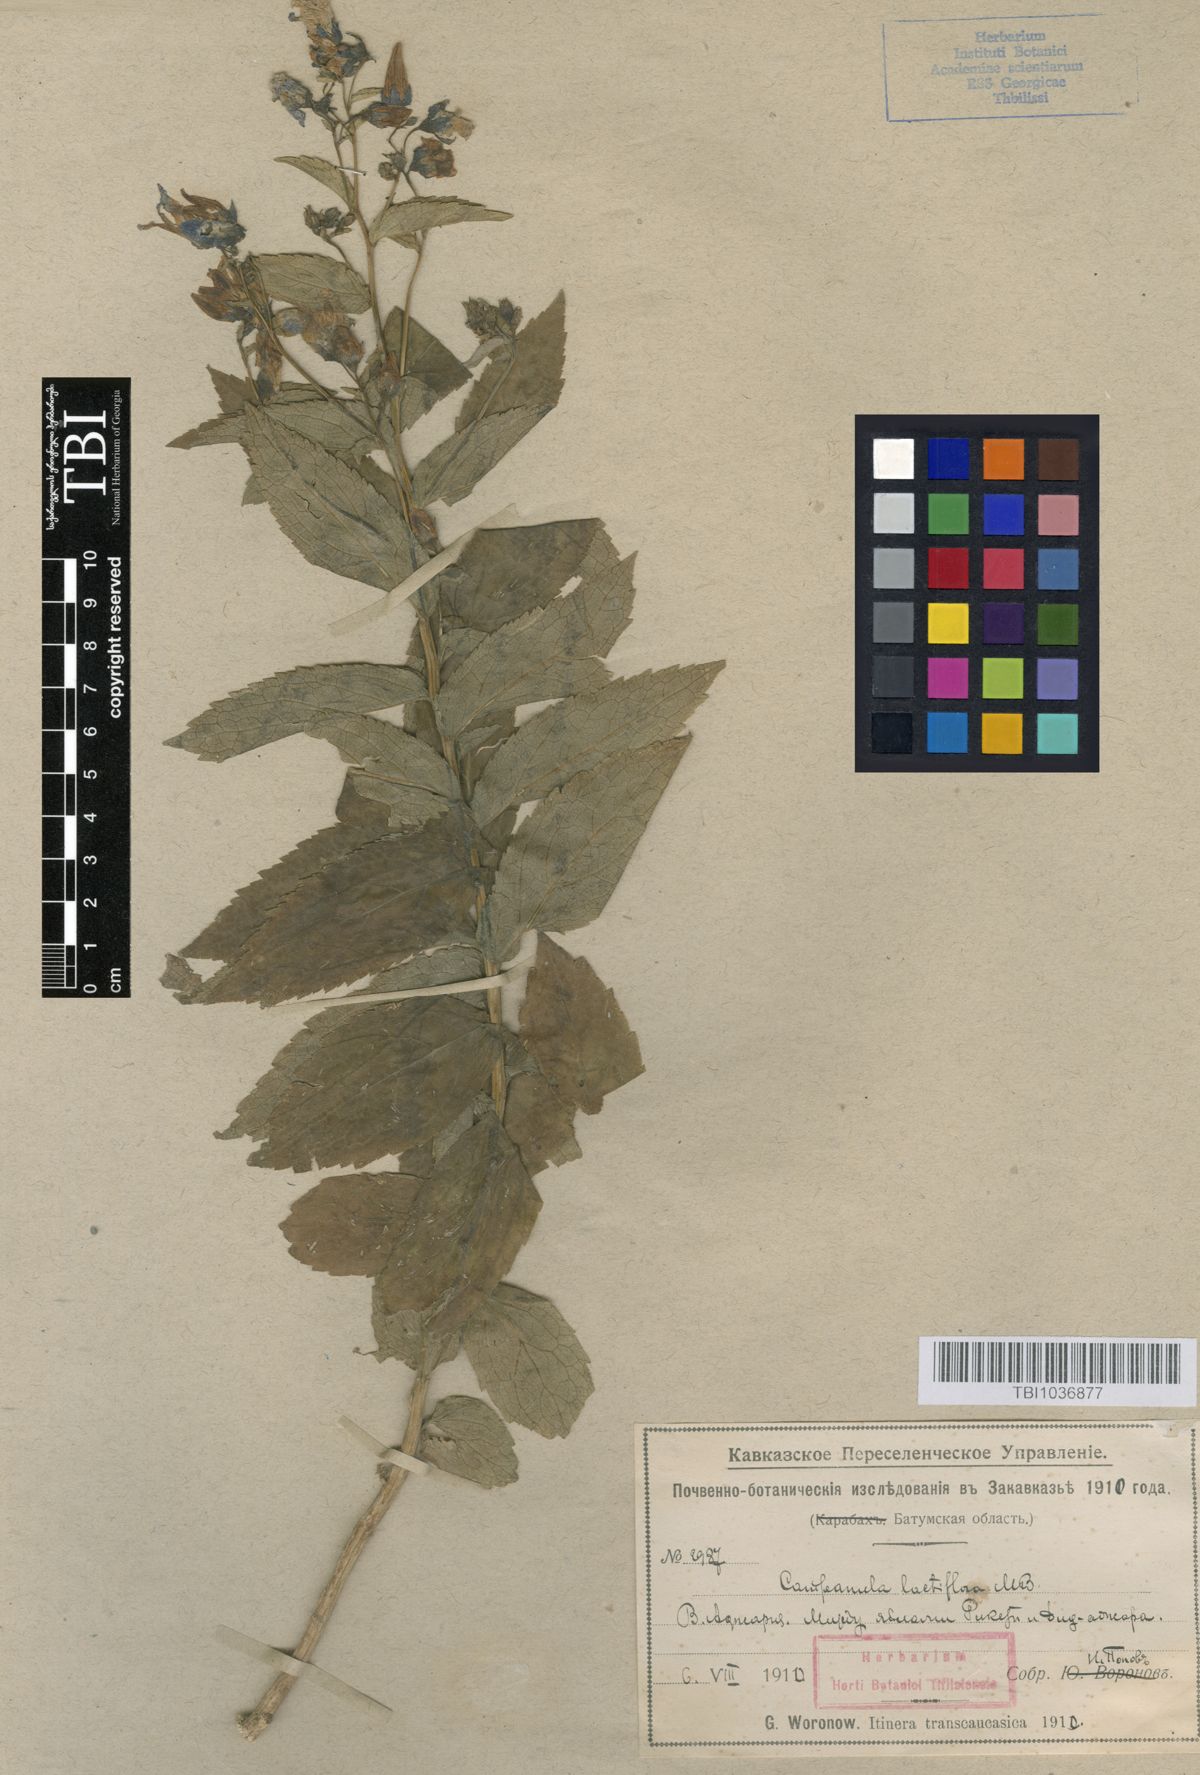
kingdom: Plantae
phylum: Tracheophyta
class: Magnoliopsida
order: Asterales
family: Campanulaceae
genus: Campanula
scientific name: Campanula lactiflora
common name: Milky bellflower
